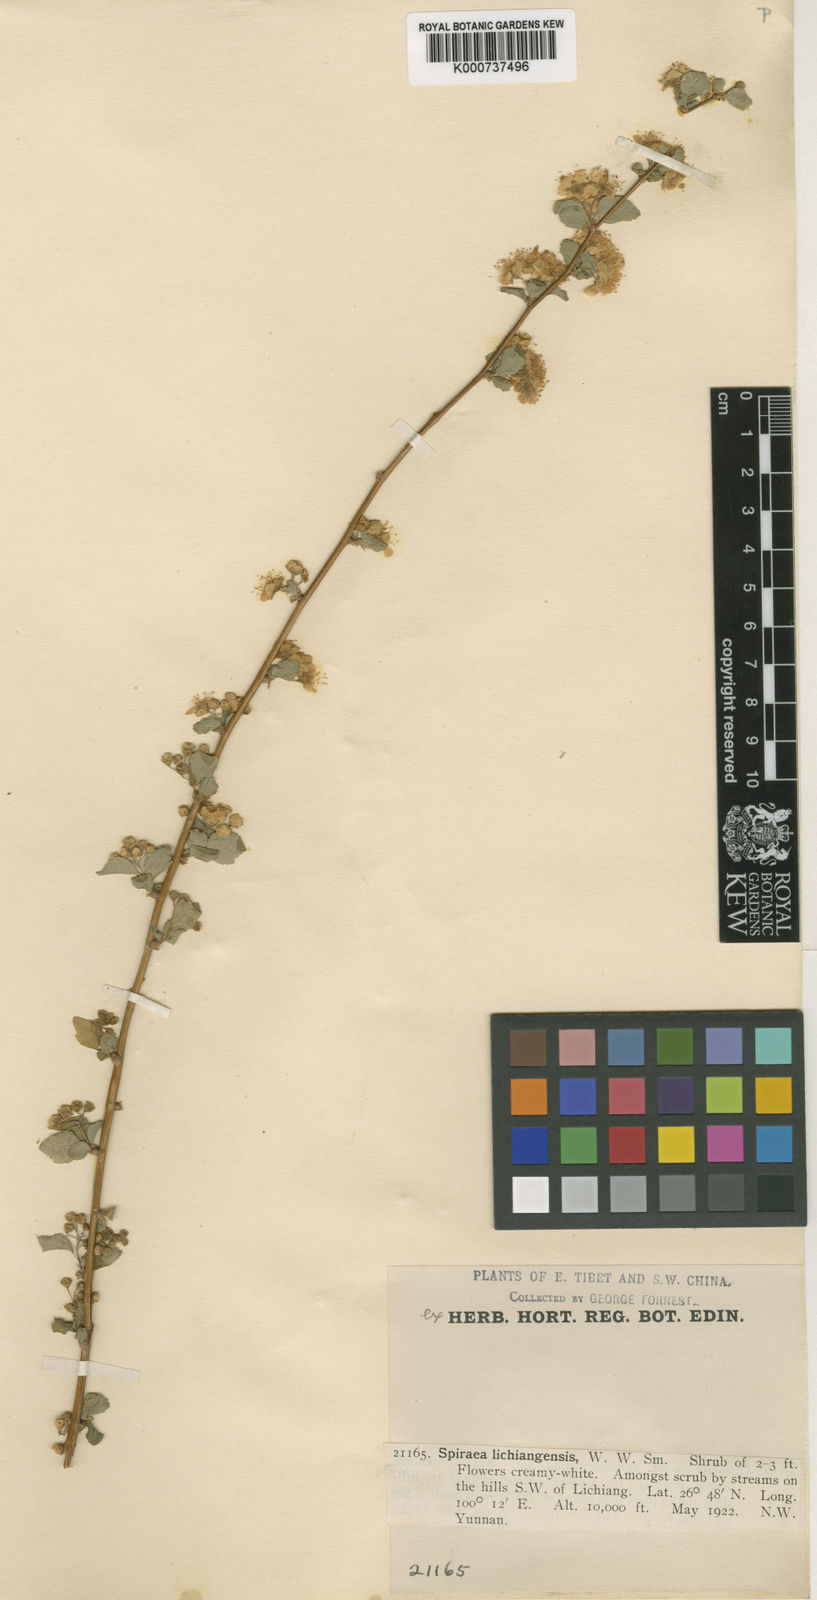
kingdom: Plantae
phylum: Tracheophyta
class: Magnoliopsida
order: Rosales
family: Rosaceae
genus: Spiraea
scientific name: Spiraea lichiangensis
